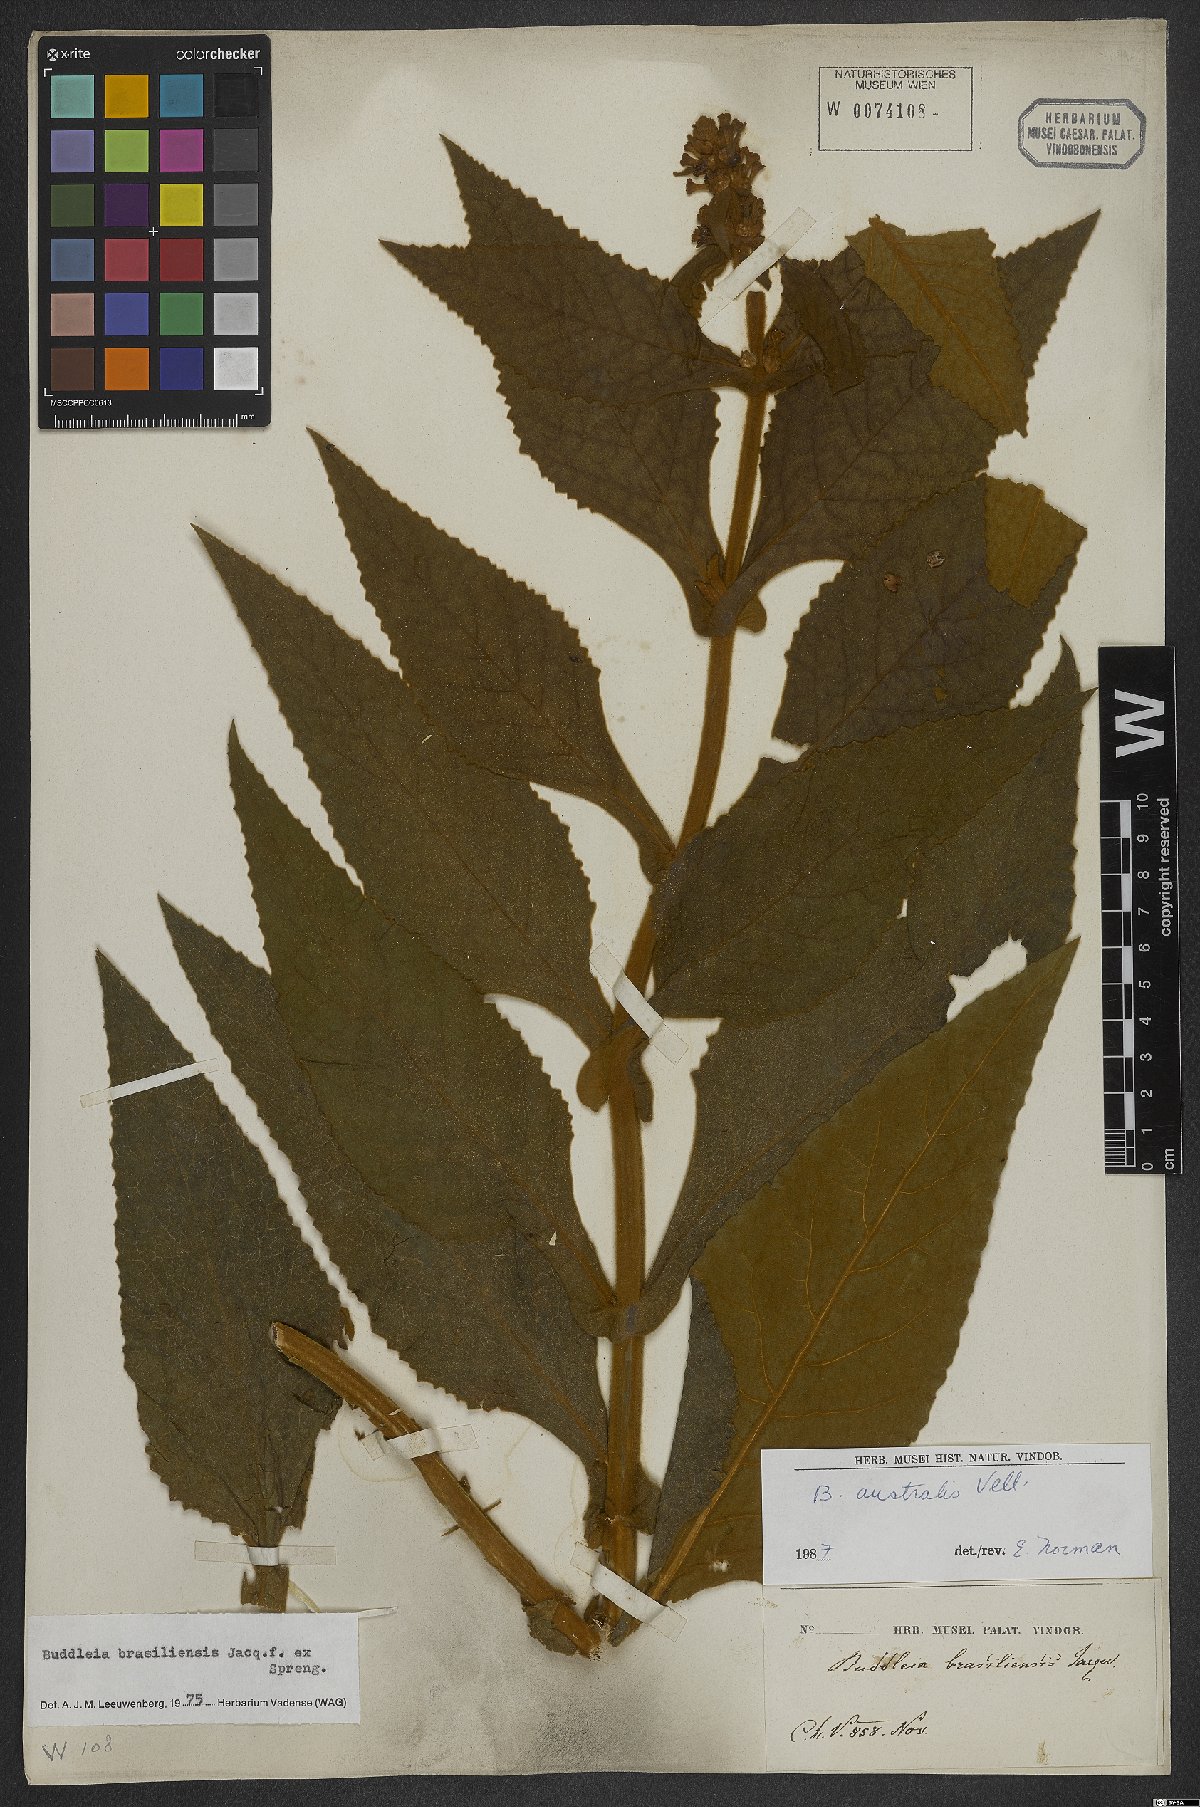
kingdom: Plantae
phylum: Tracheophyta
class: Magnoliopsida
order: Lamiales
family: Scrophulariaceae
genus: Buddleja
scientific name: Buddleja stachyoides
